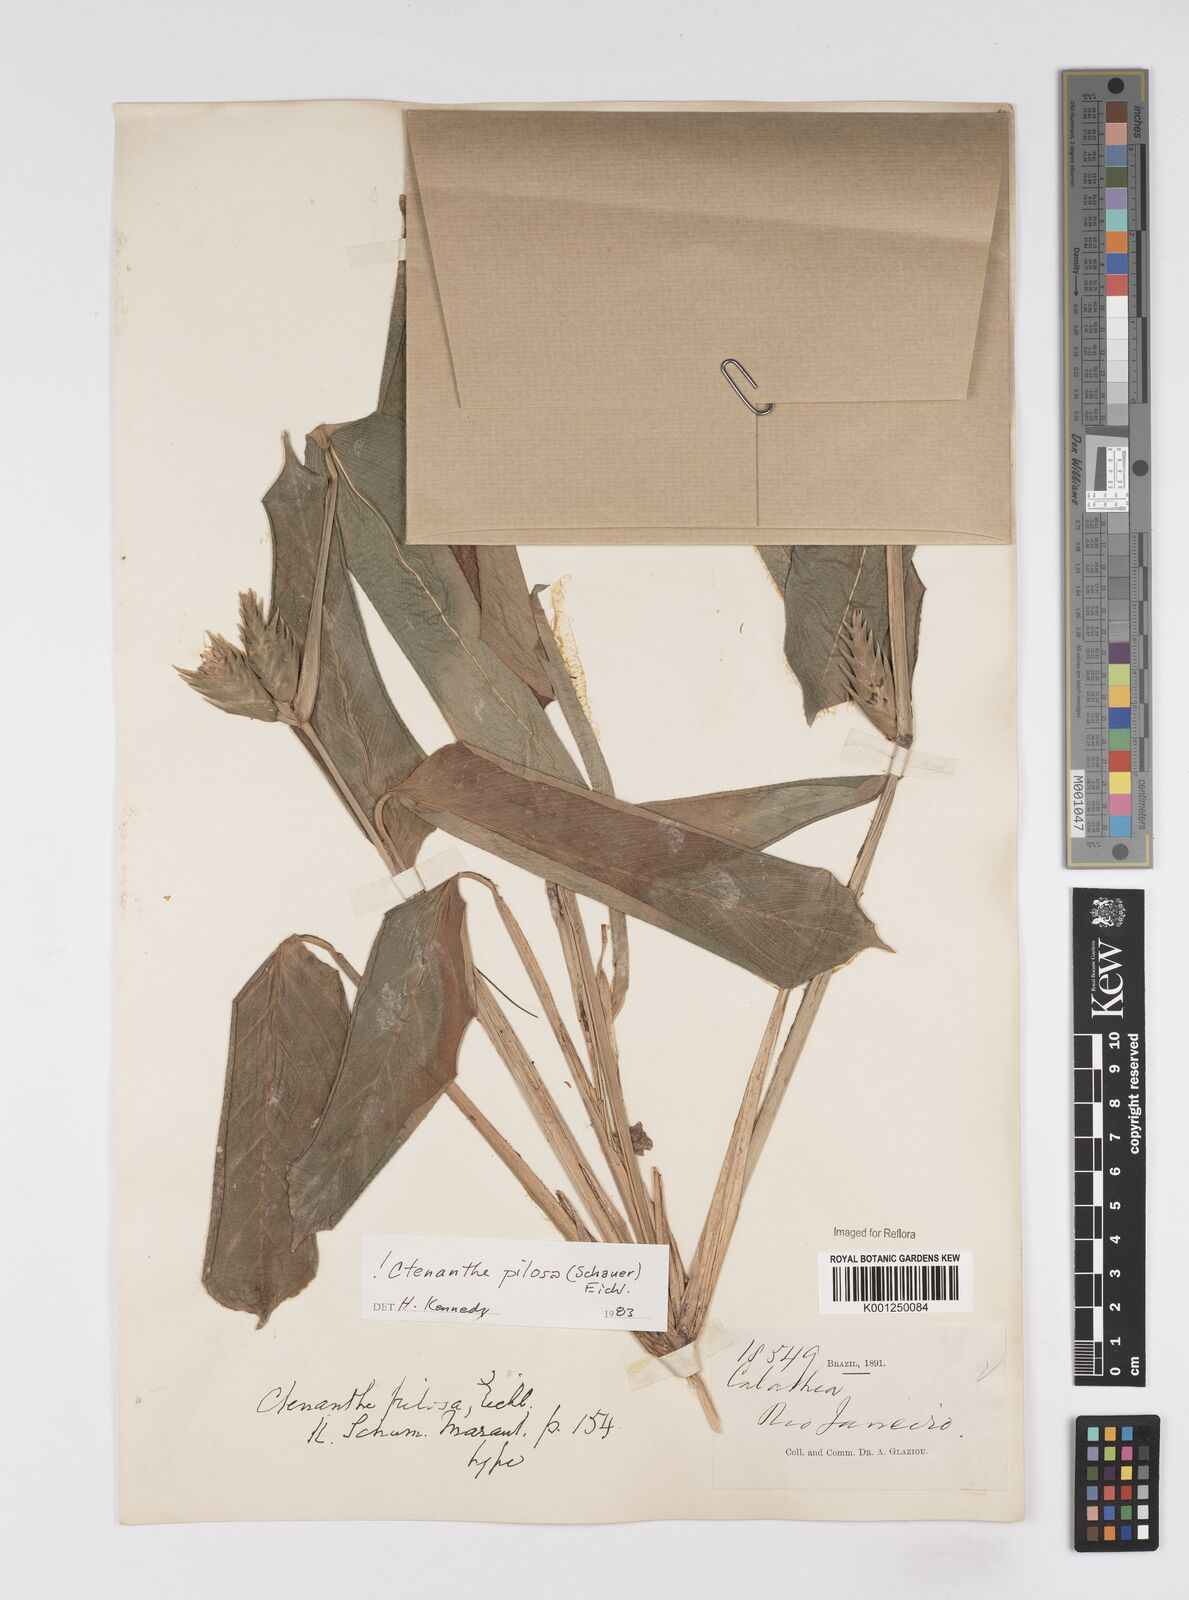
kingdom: Plantae
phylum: Tracheophyta
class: Liliopsida
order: Zingiberales
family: Marantaceae
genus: Ctenanthe
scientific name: Ctenanthe marantifolia
